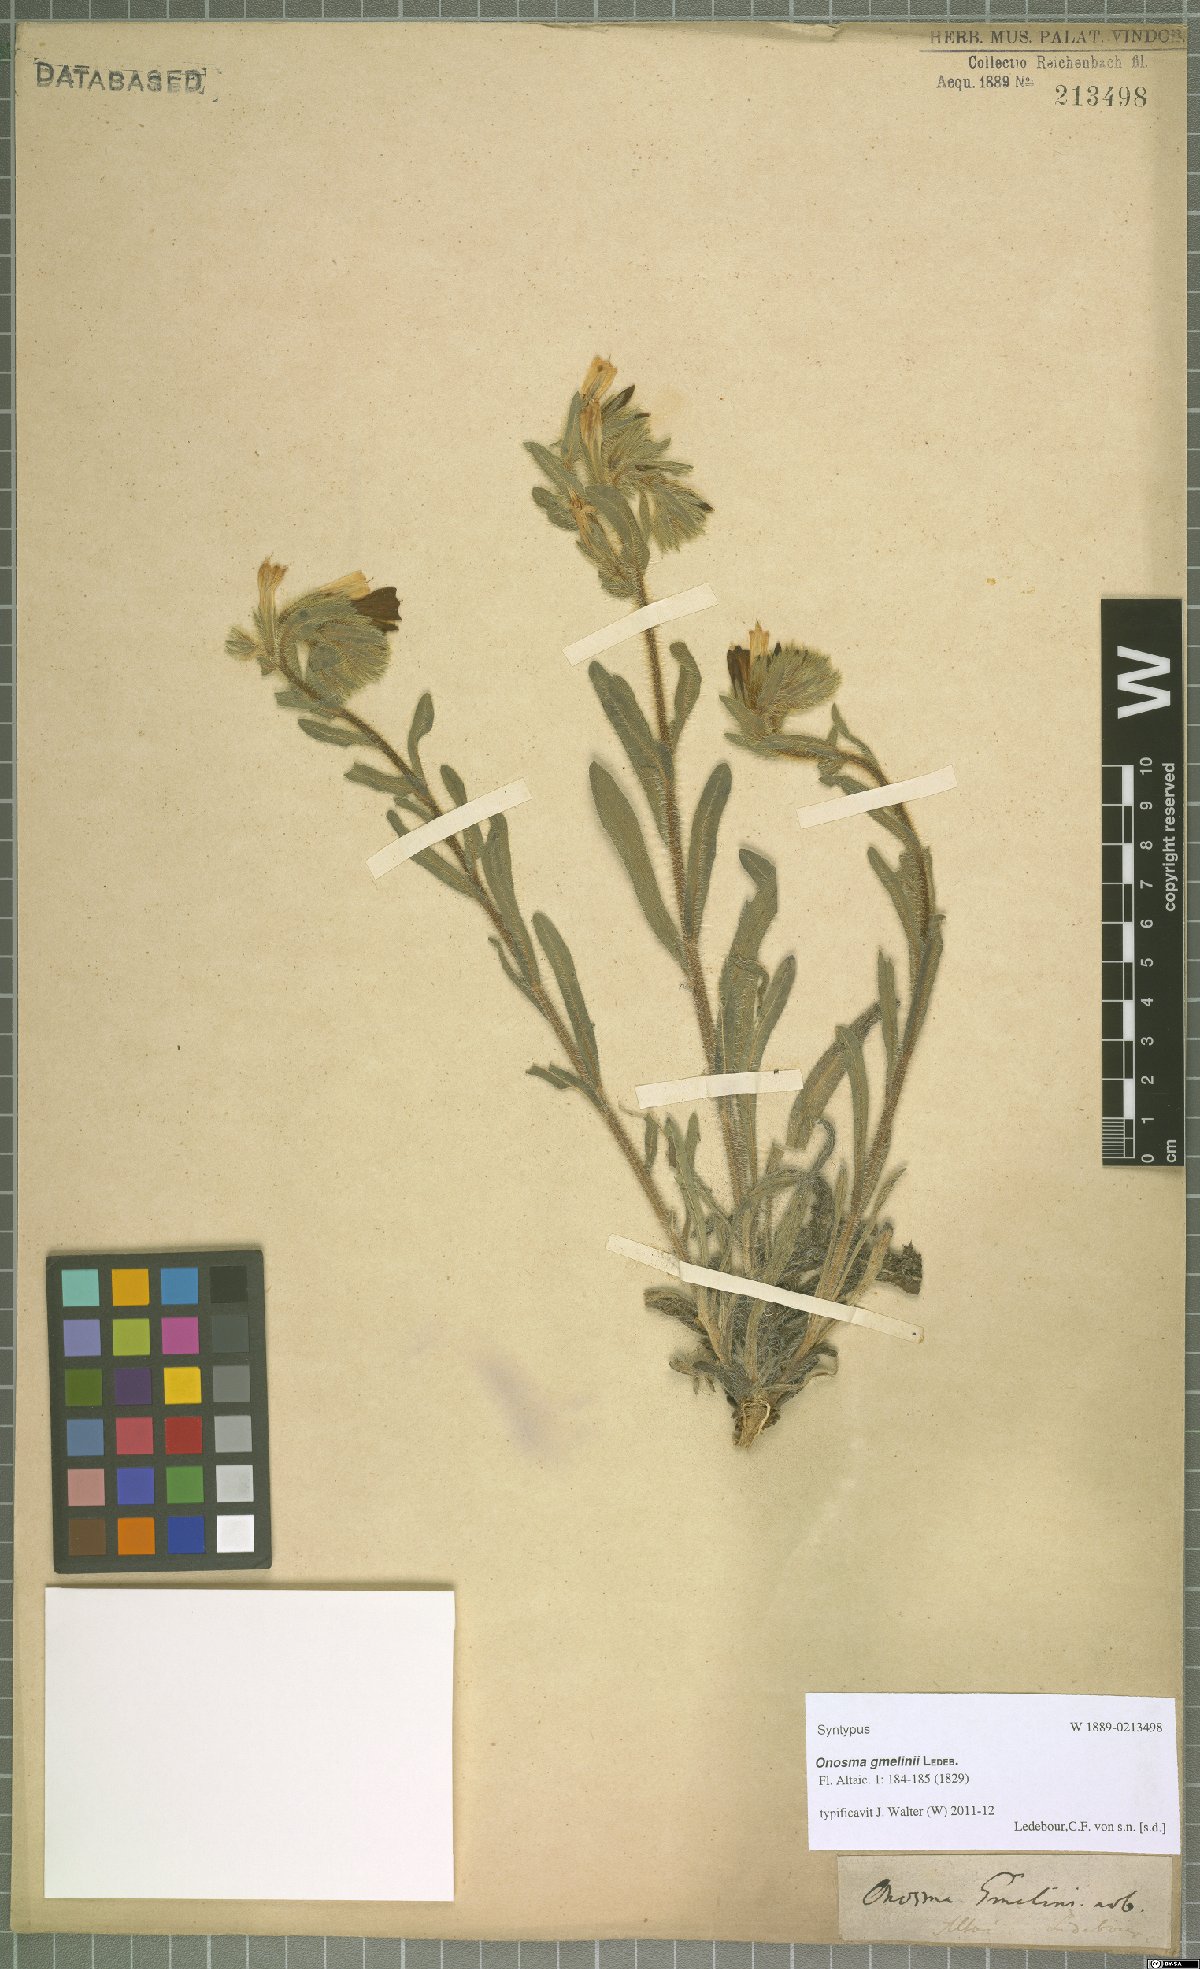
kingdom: Plantae
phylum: Tracheophyta
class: Magnoliopsida
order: Boraginales
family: Boraginaceae
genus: Onosma
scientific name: Onosma gmelinii
